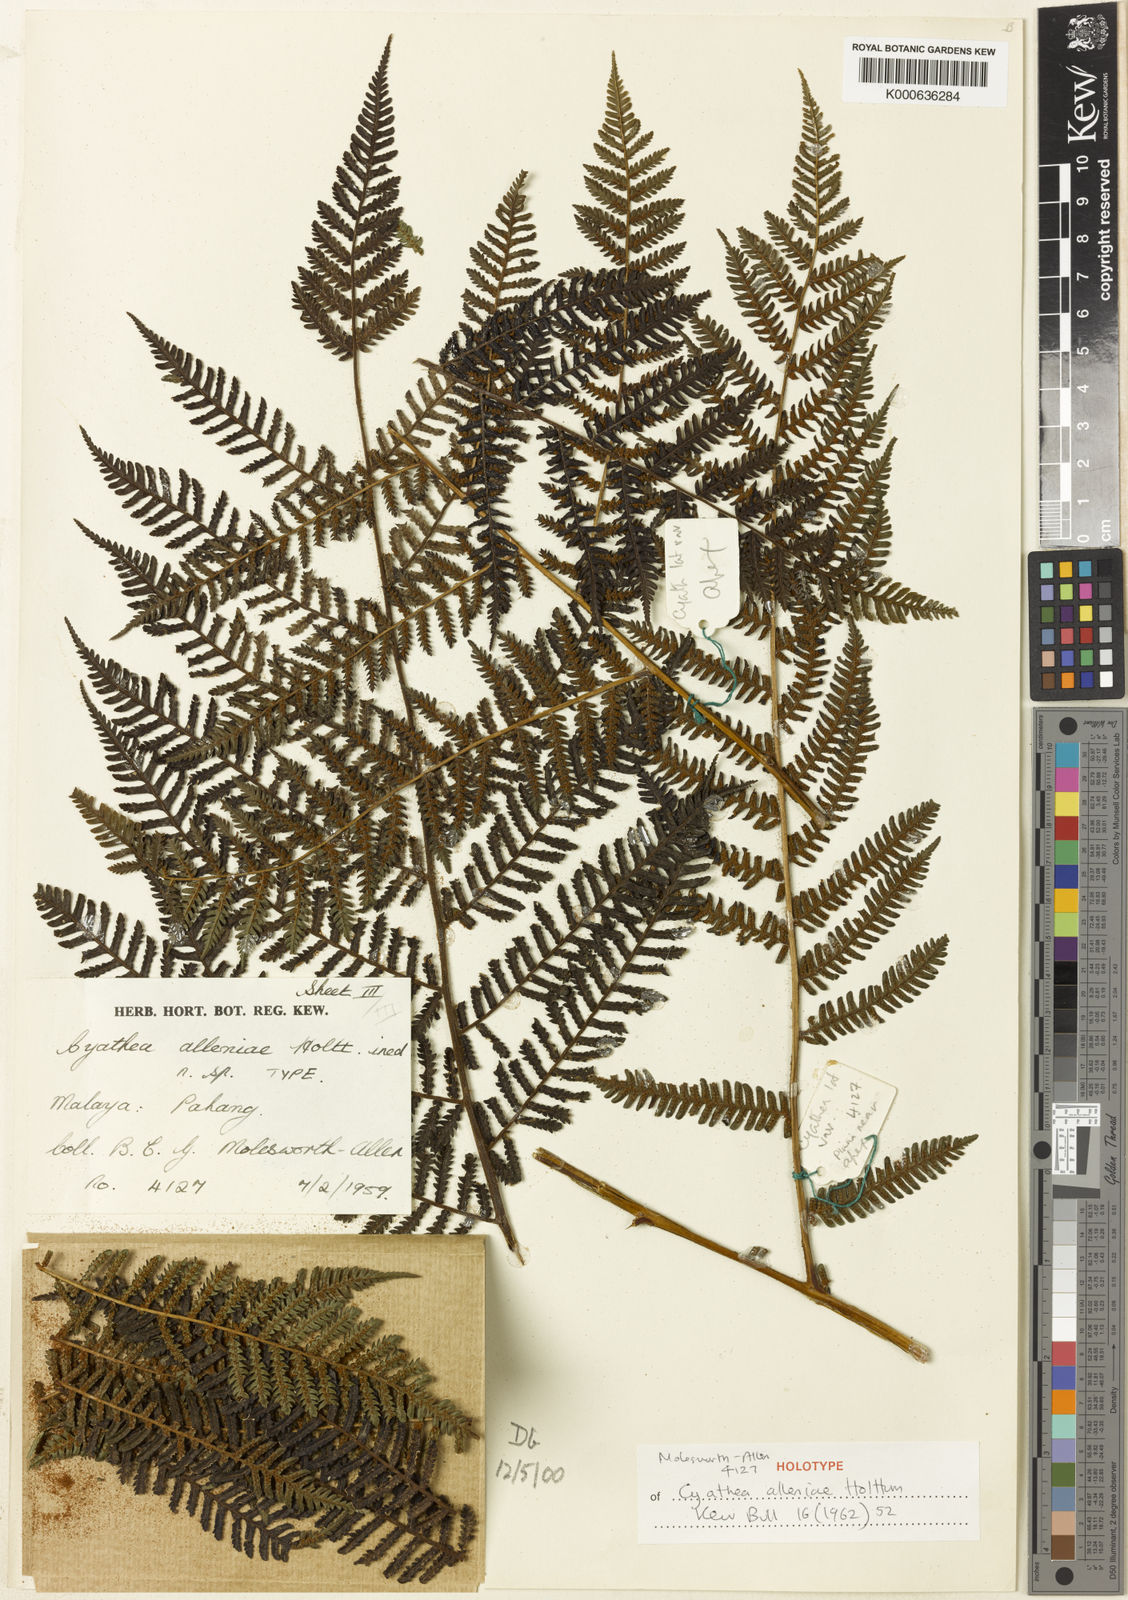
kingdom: Plantae
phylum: Tracheophyta
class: Polypodiopsida
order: Cyatheales
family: Cyatheaceae
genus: Alsophila
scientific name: Alsophila alleniae
